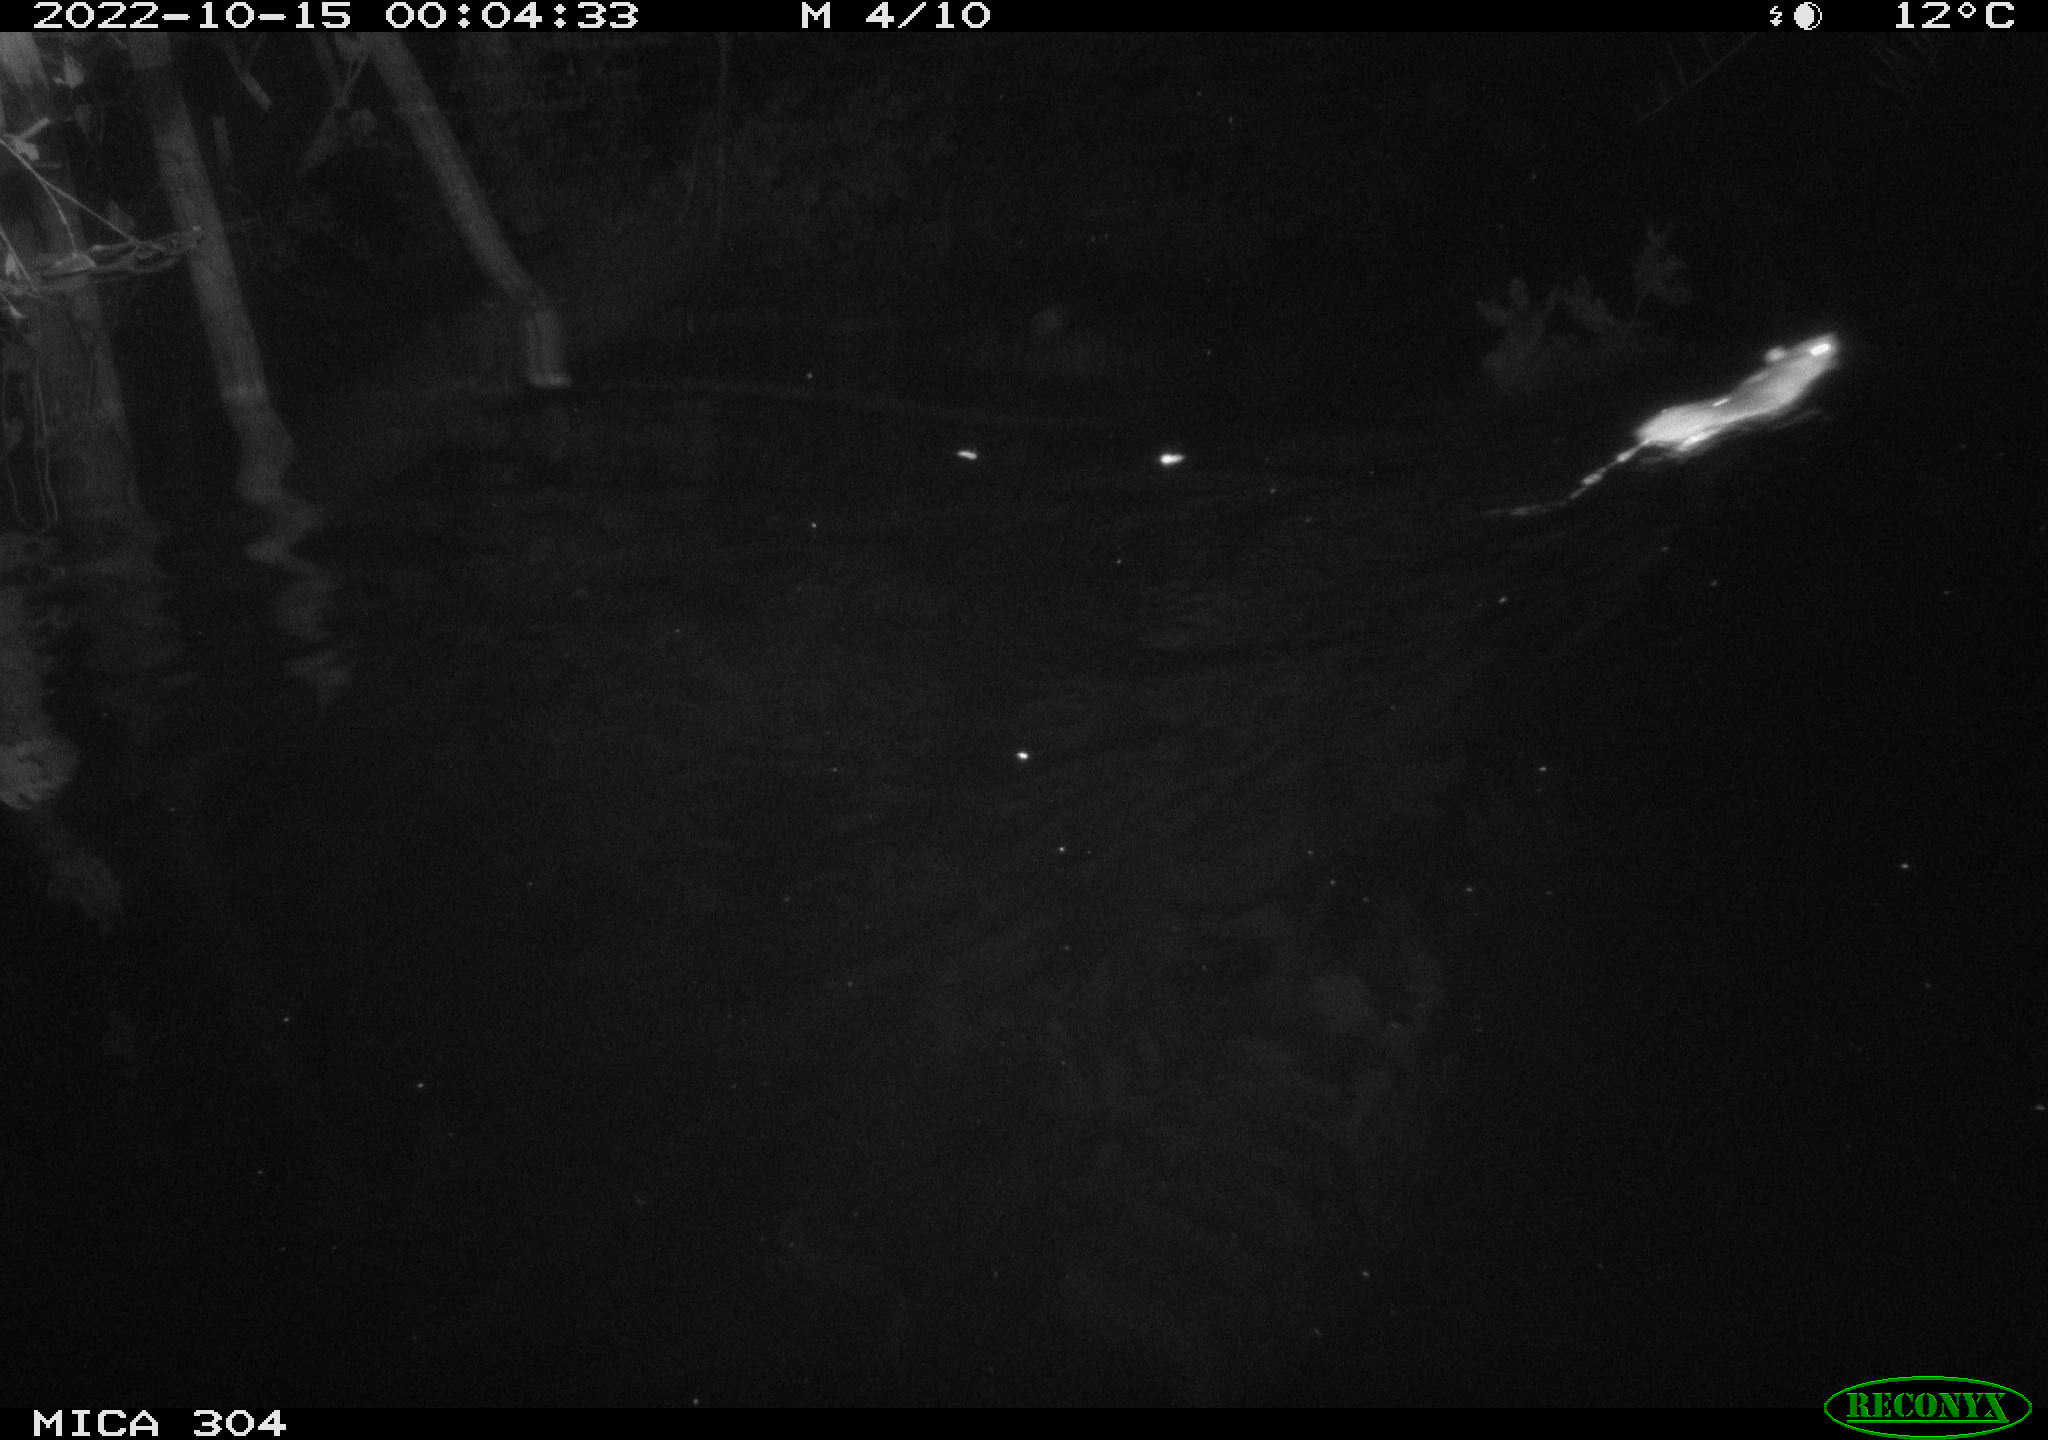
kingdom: Animalia
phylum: Chordata
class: Mammalia
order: Rodentia
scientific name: Rodentia
